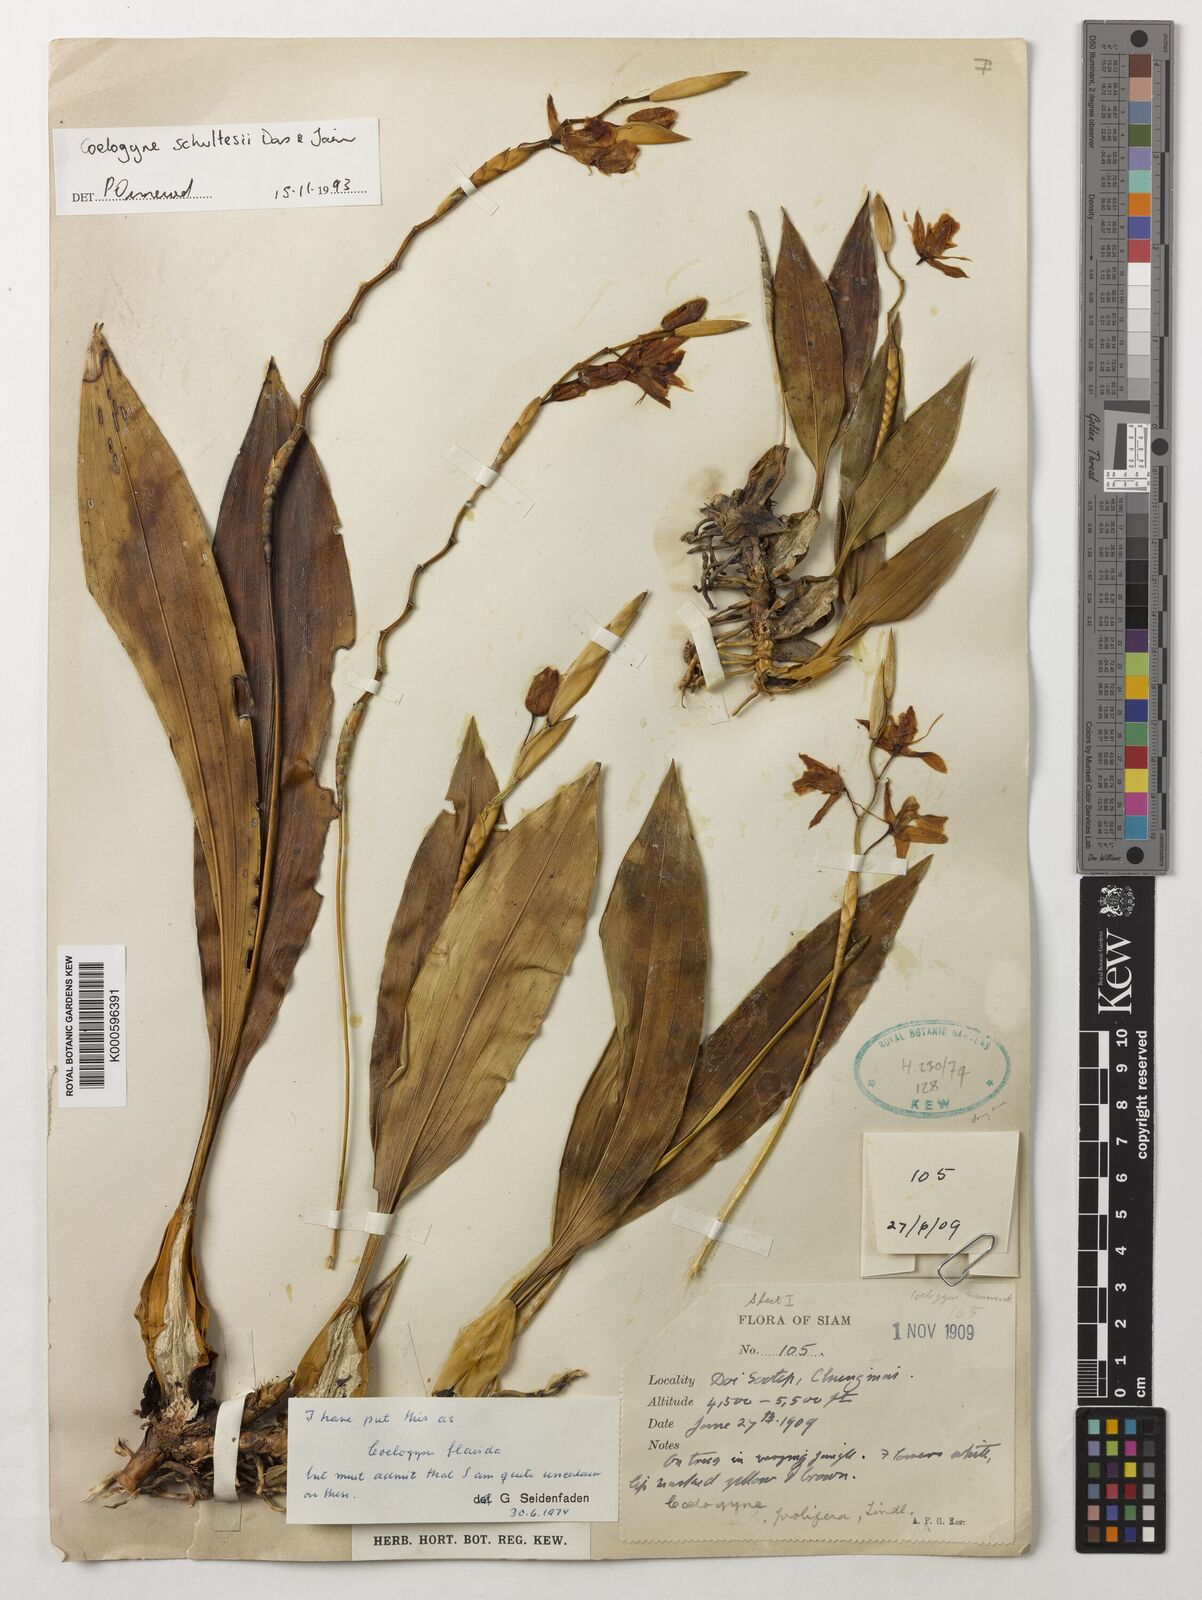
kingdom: Plantae
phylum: Tracheophyta
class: Liliopsida
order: Asparagales
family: Orchidaceae
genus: Coelogyne
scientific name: Coelogyne schultesii
